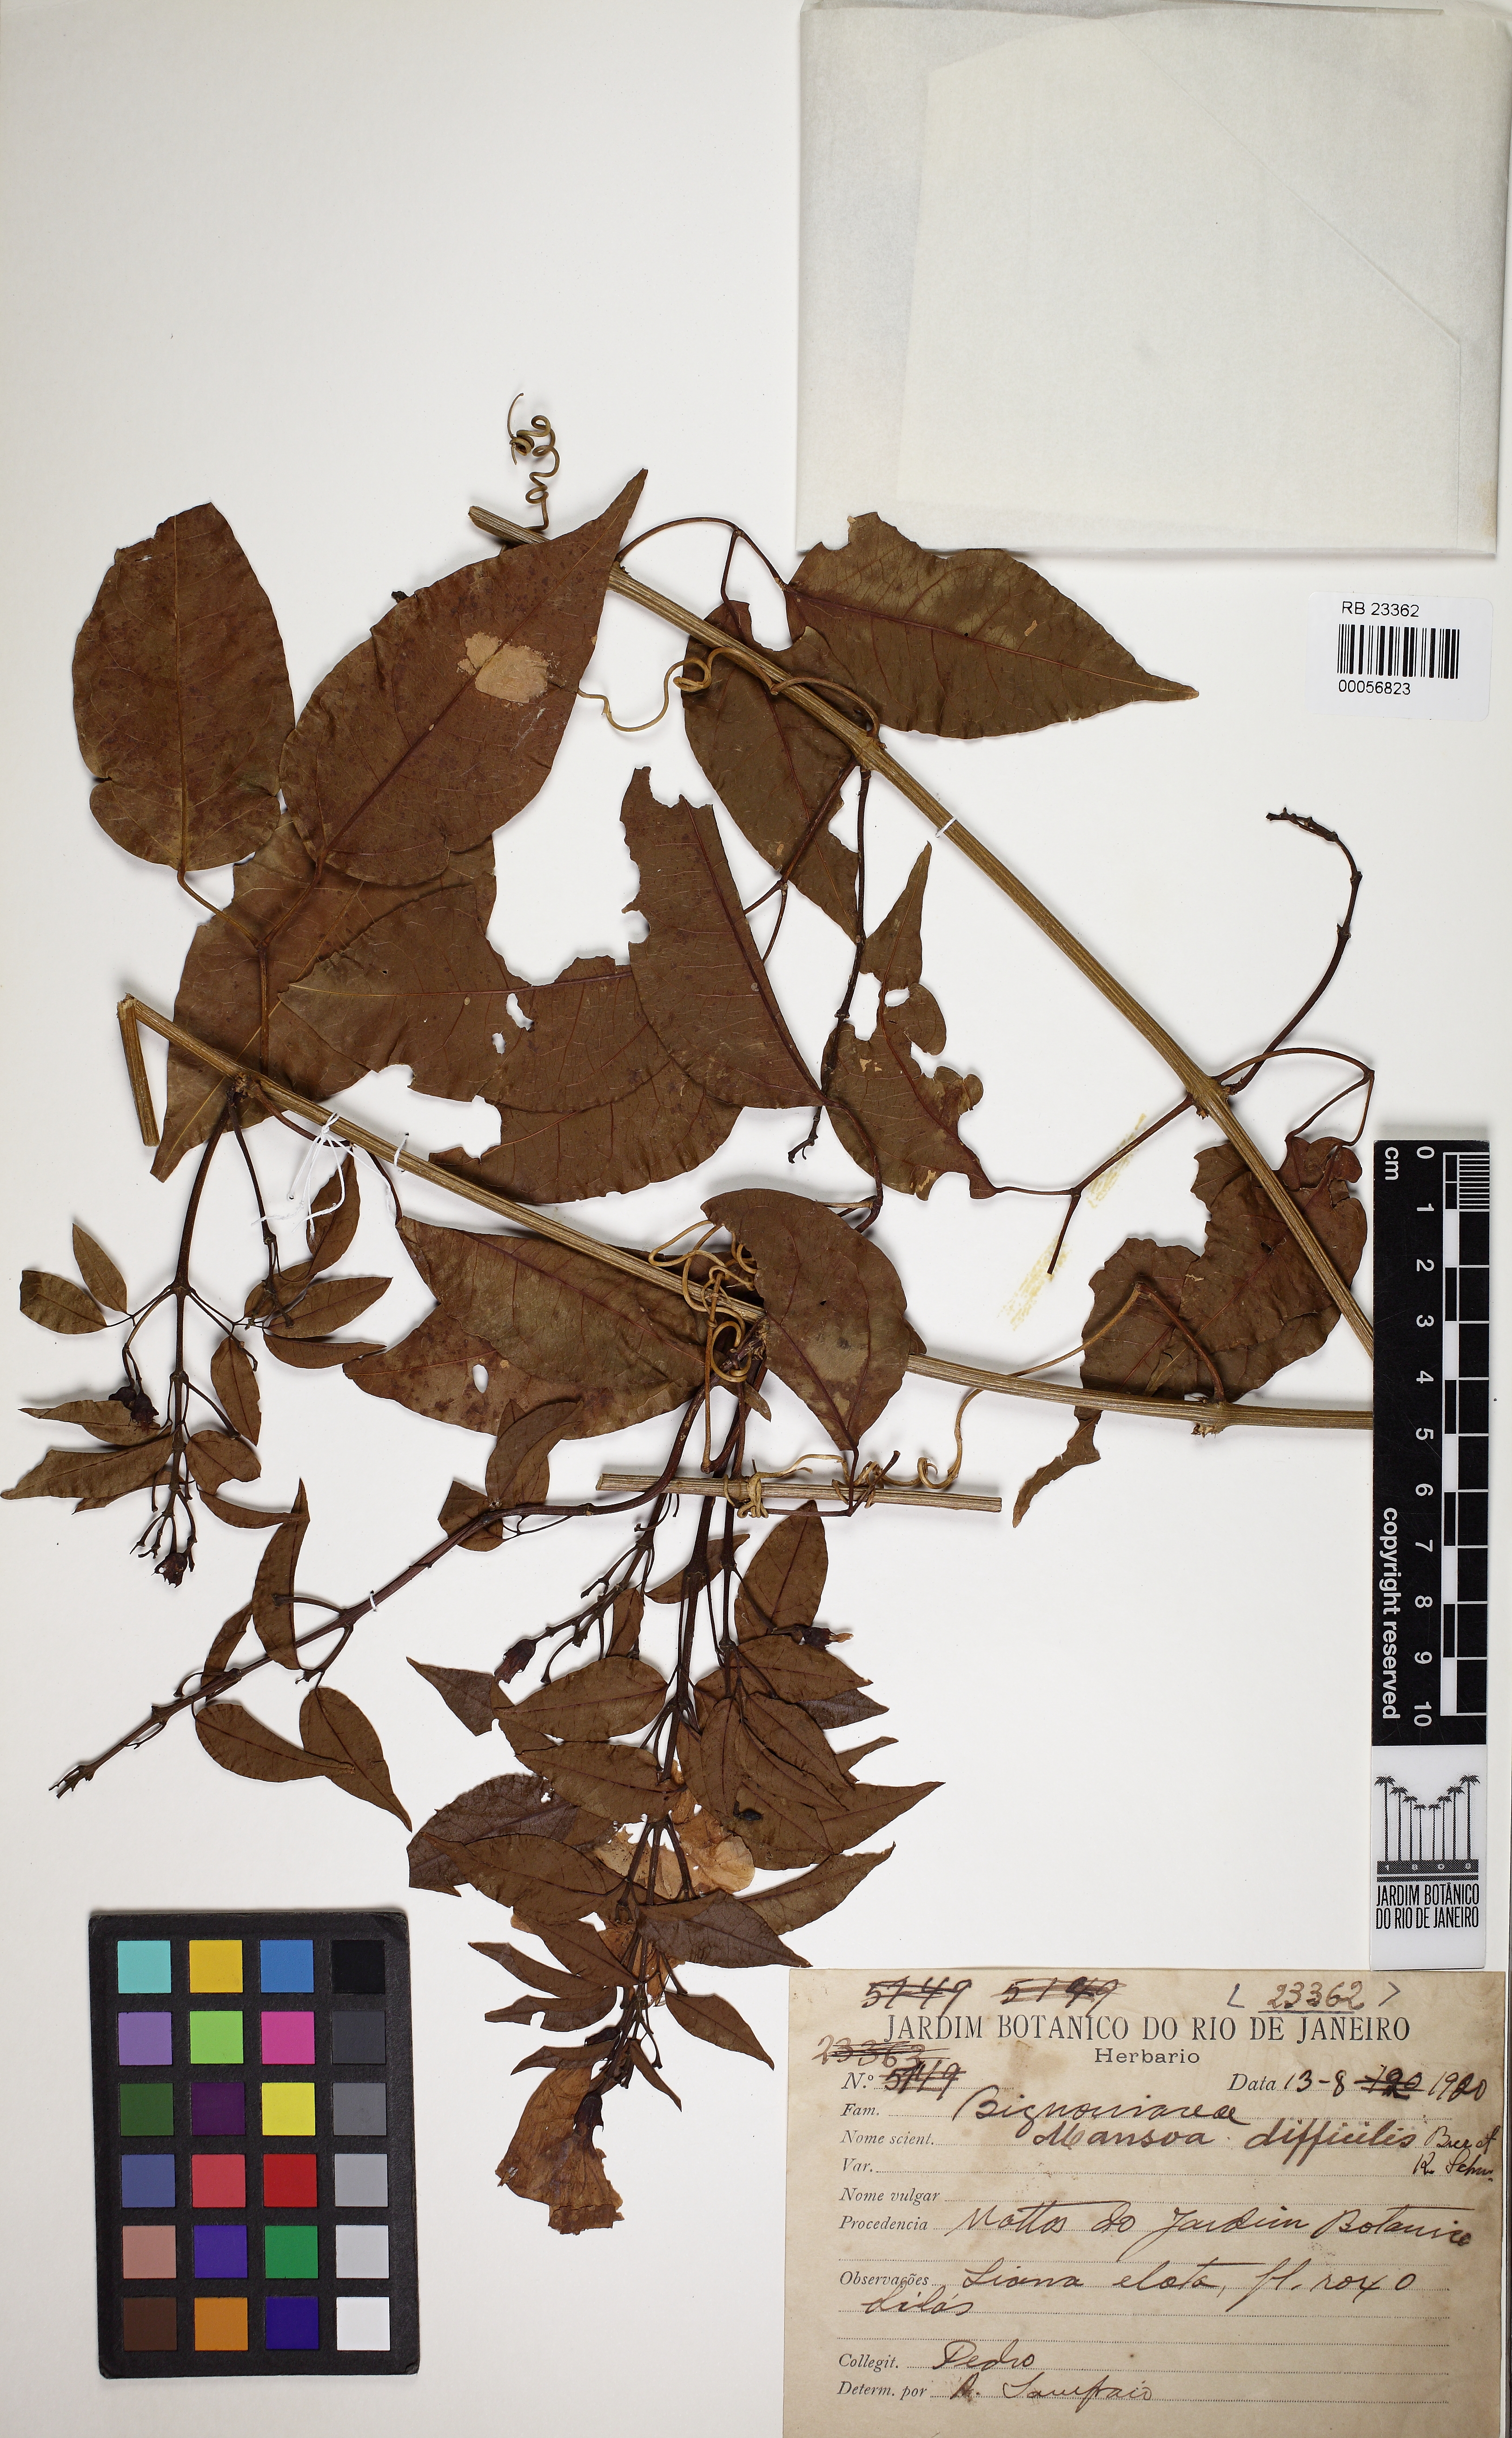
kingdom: Plantae
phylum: Tracheophyta
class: Magnoliopsida
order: Lamiales
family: Bignoniaceae
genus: Mansoa
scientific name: Mansoa difficilis
